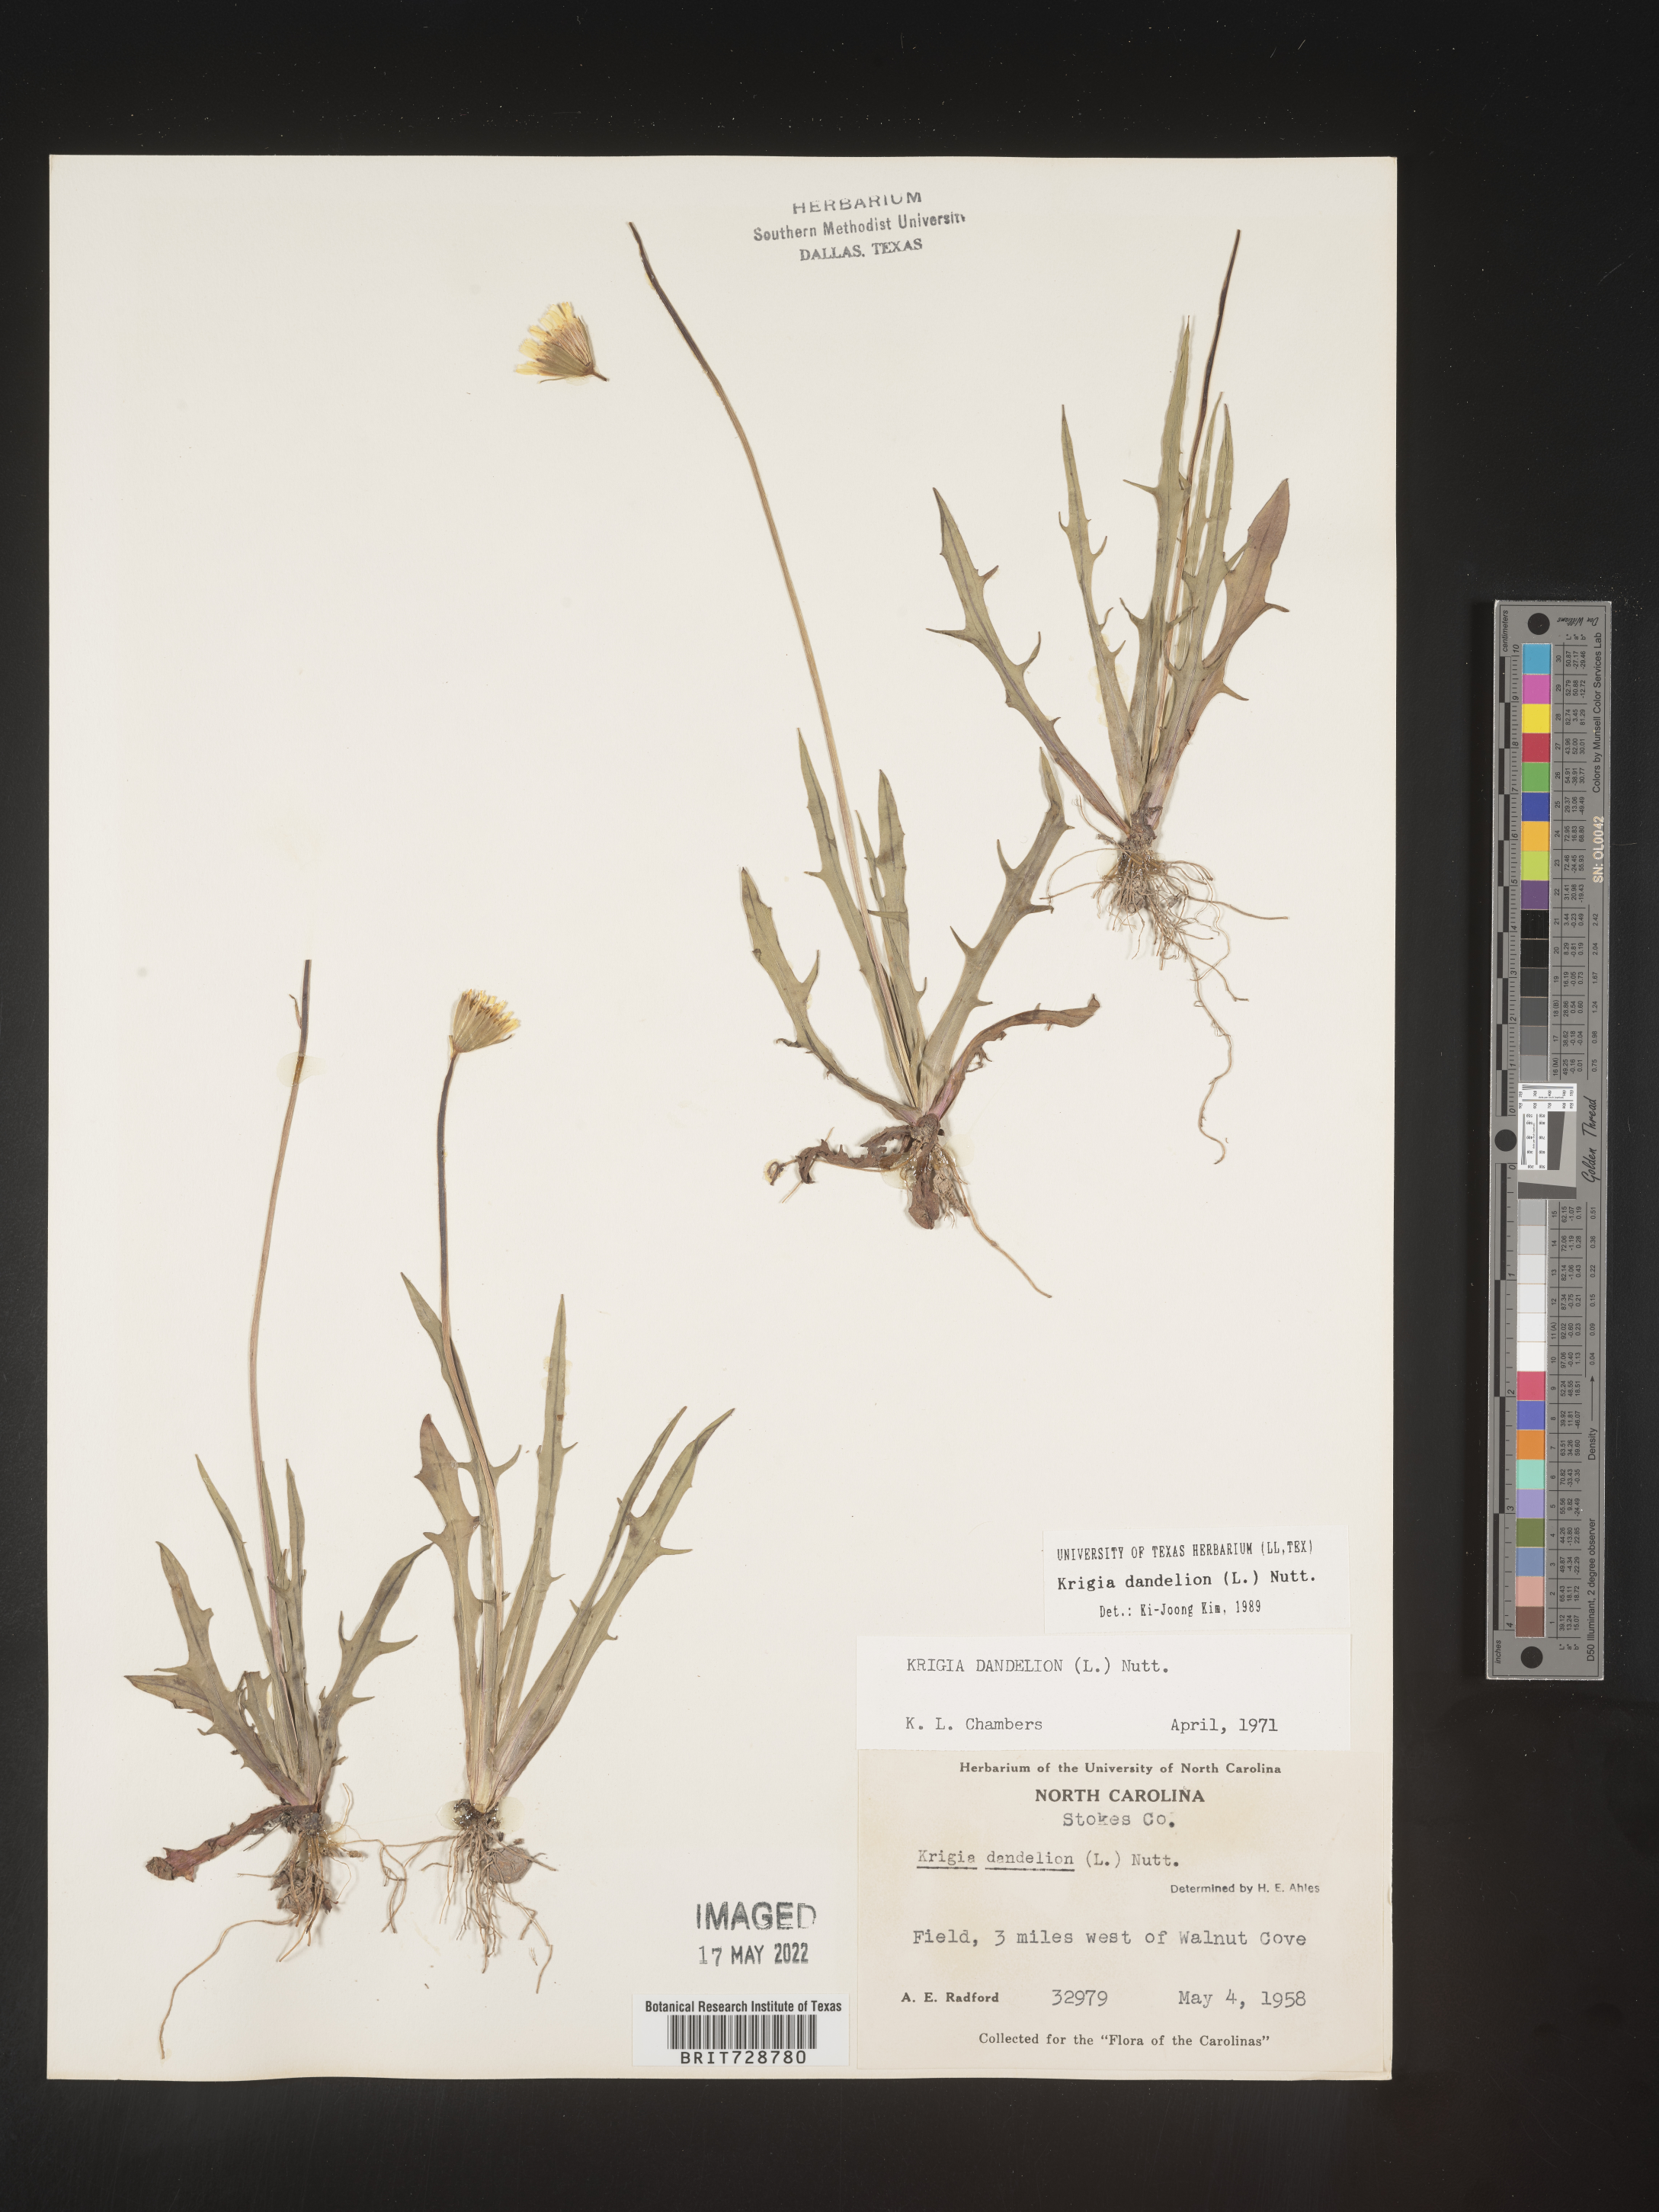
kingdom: Plantae
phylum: Tracheophyta
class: Magnoliopsida
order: Asterales
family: Asteraceae
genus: Krigia
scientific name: Krigia dandelion
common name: Colonial dwarf-dandelion
